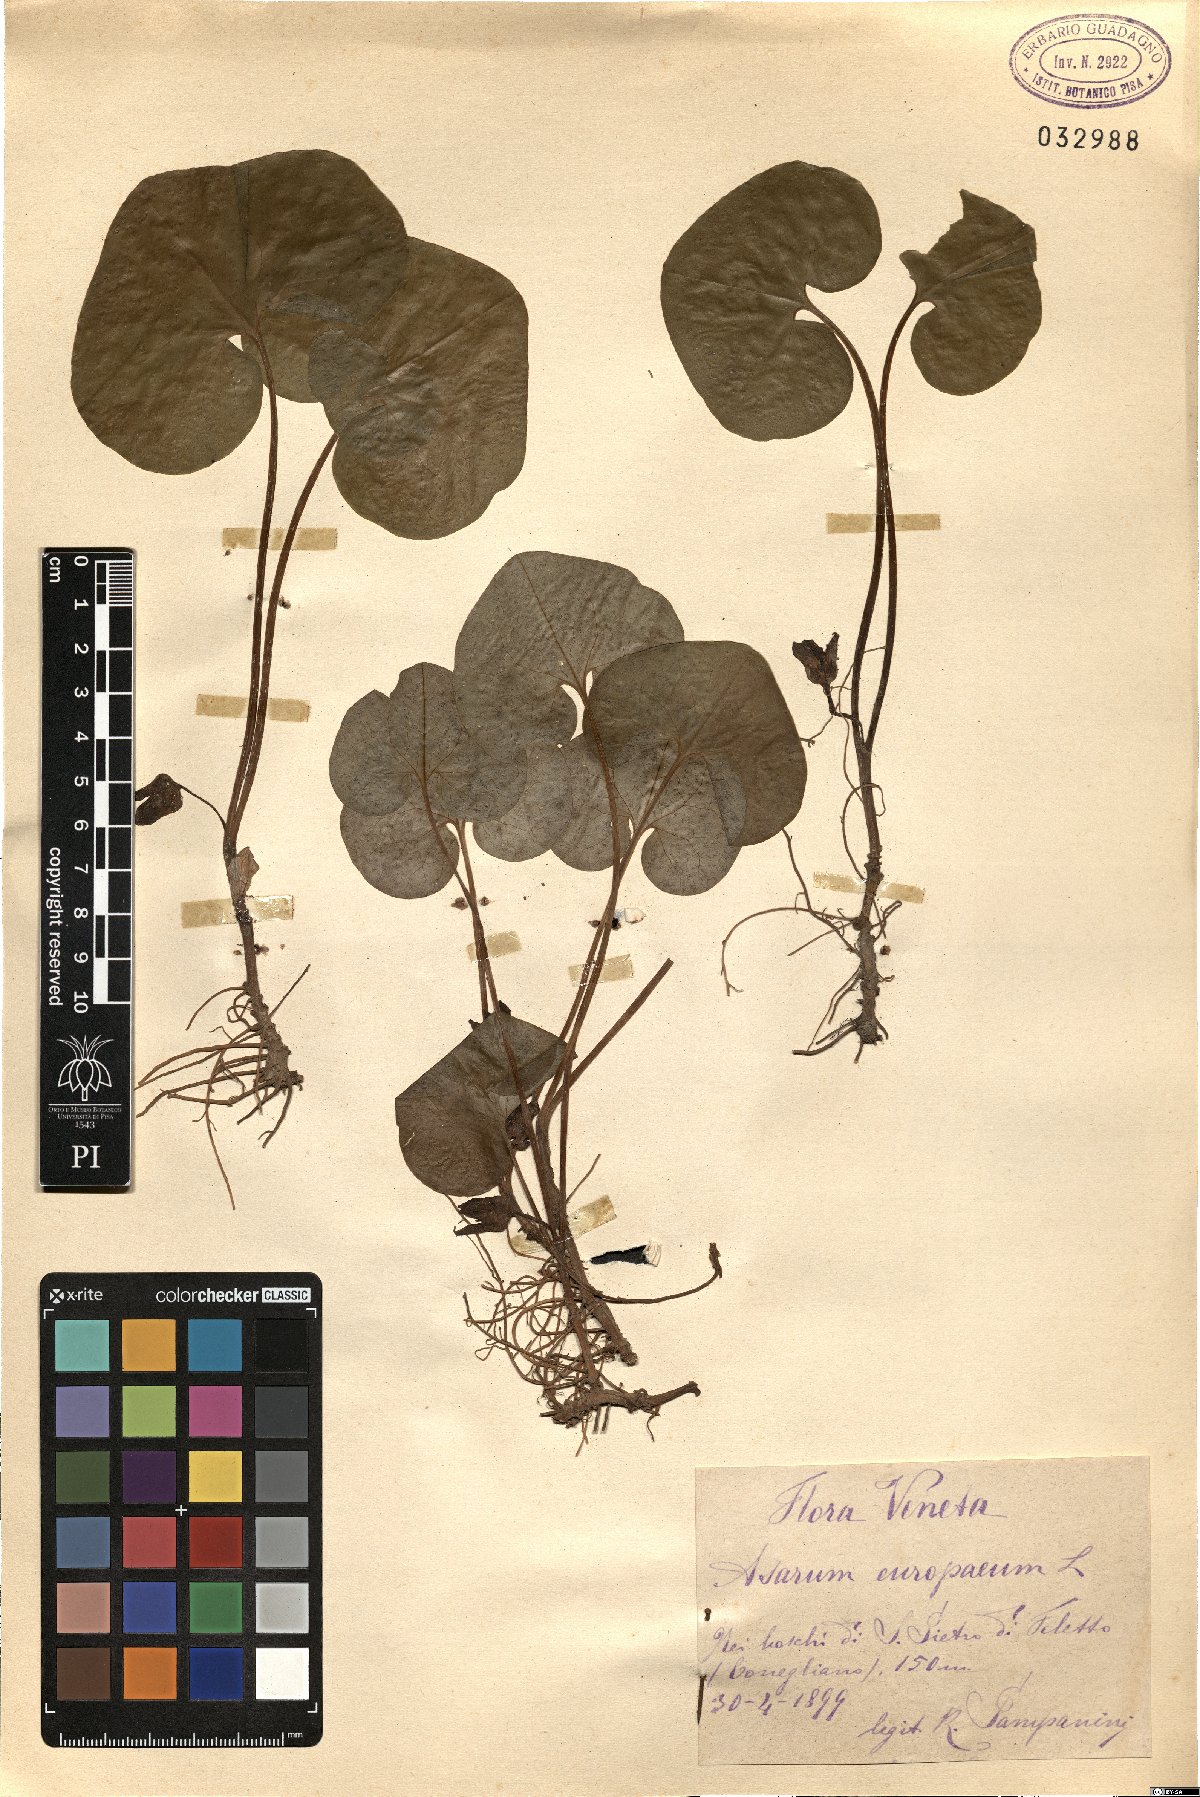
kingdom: Plantae
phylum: Tracheophyta
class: Magnoliopsida
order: Piperales
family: Aristolochiaceae
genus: Asarum
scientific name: Asarum europaeum
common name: Asarabacca
